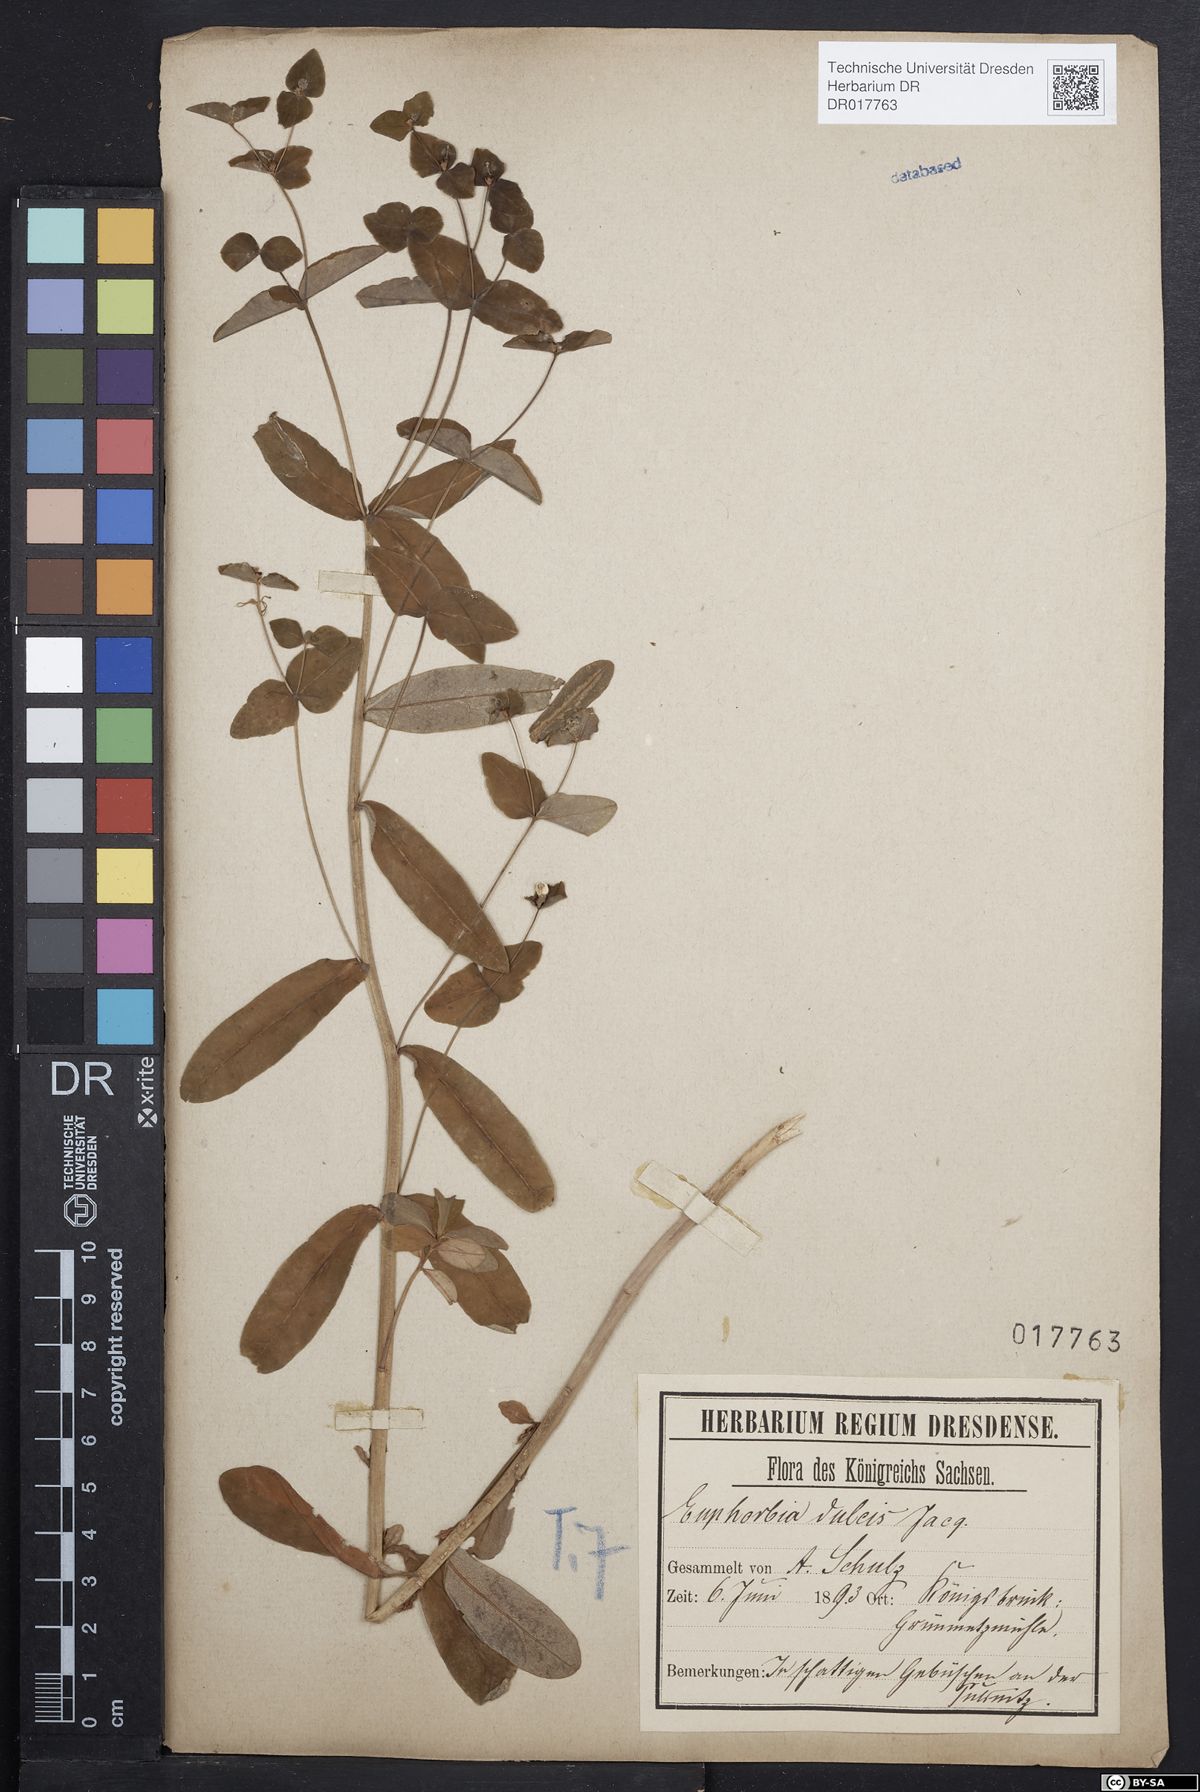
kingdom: Plantae
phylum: Tracheophyta
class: Magnoliopsida
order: Malpighiales
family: Euphorbiaceae
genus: Euphorbia
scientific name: Euphorbia dulcis
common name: Sweet spurge
